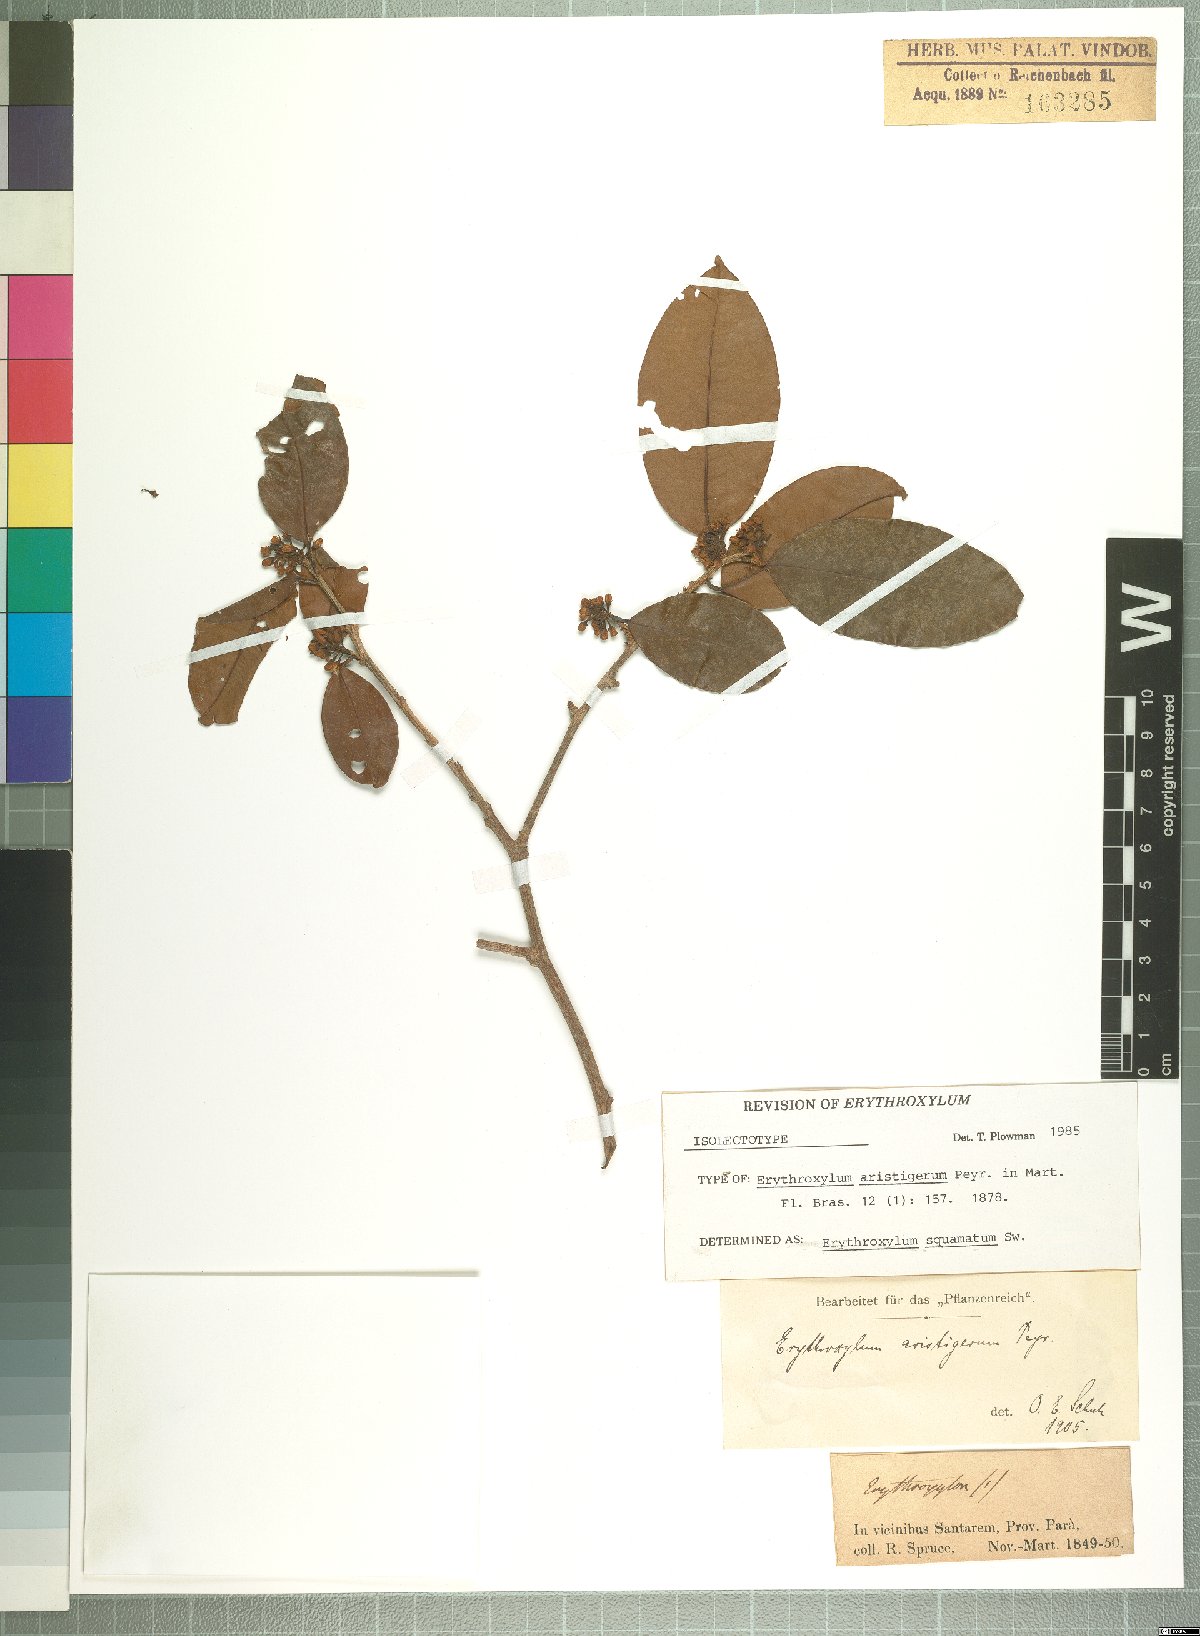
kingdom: Plantae
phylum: Tracheophyta
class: Magnoliopsida
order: Malpighiales
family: Erythroxylaceae
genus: Erythroxylum
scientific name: Erythroxylum squamatum
